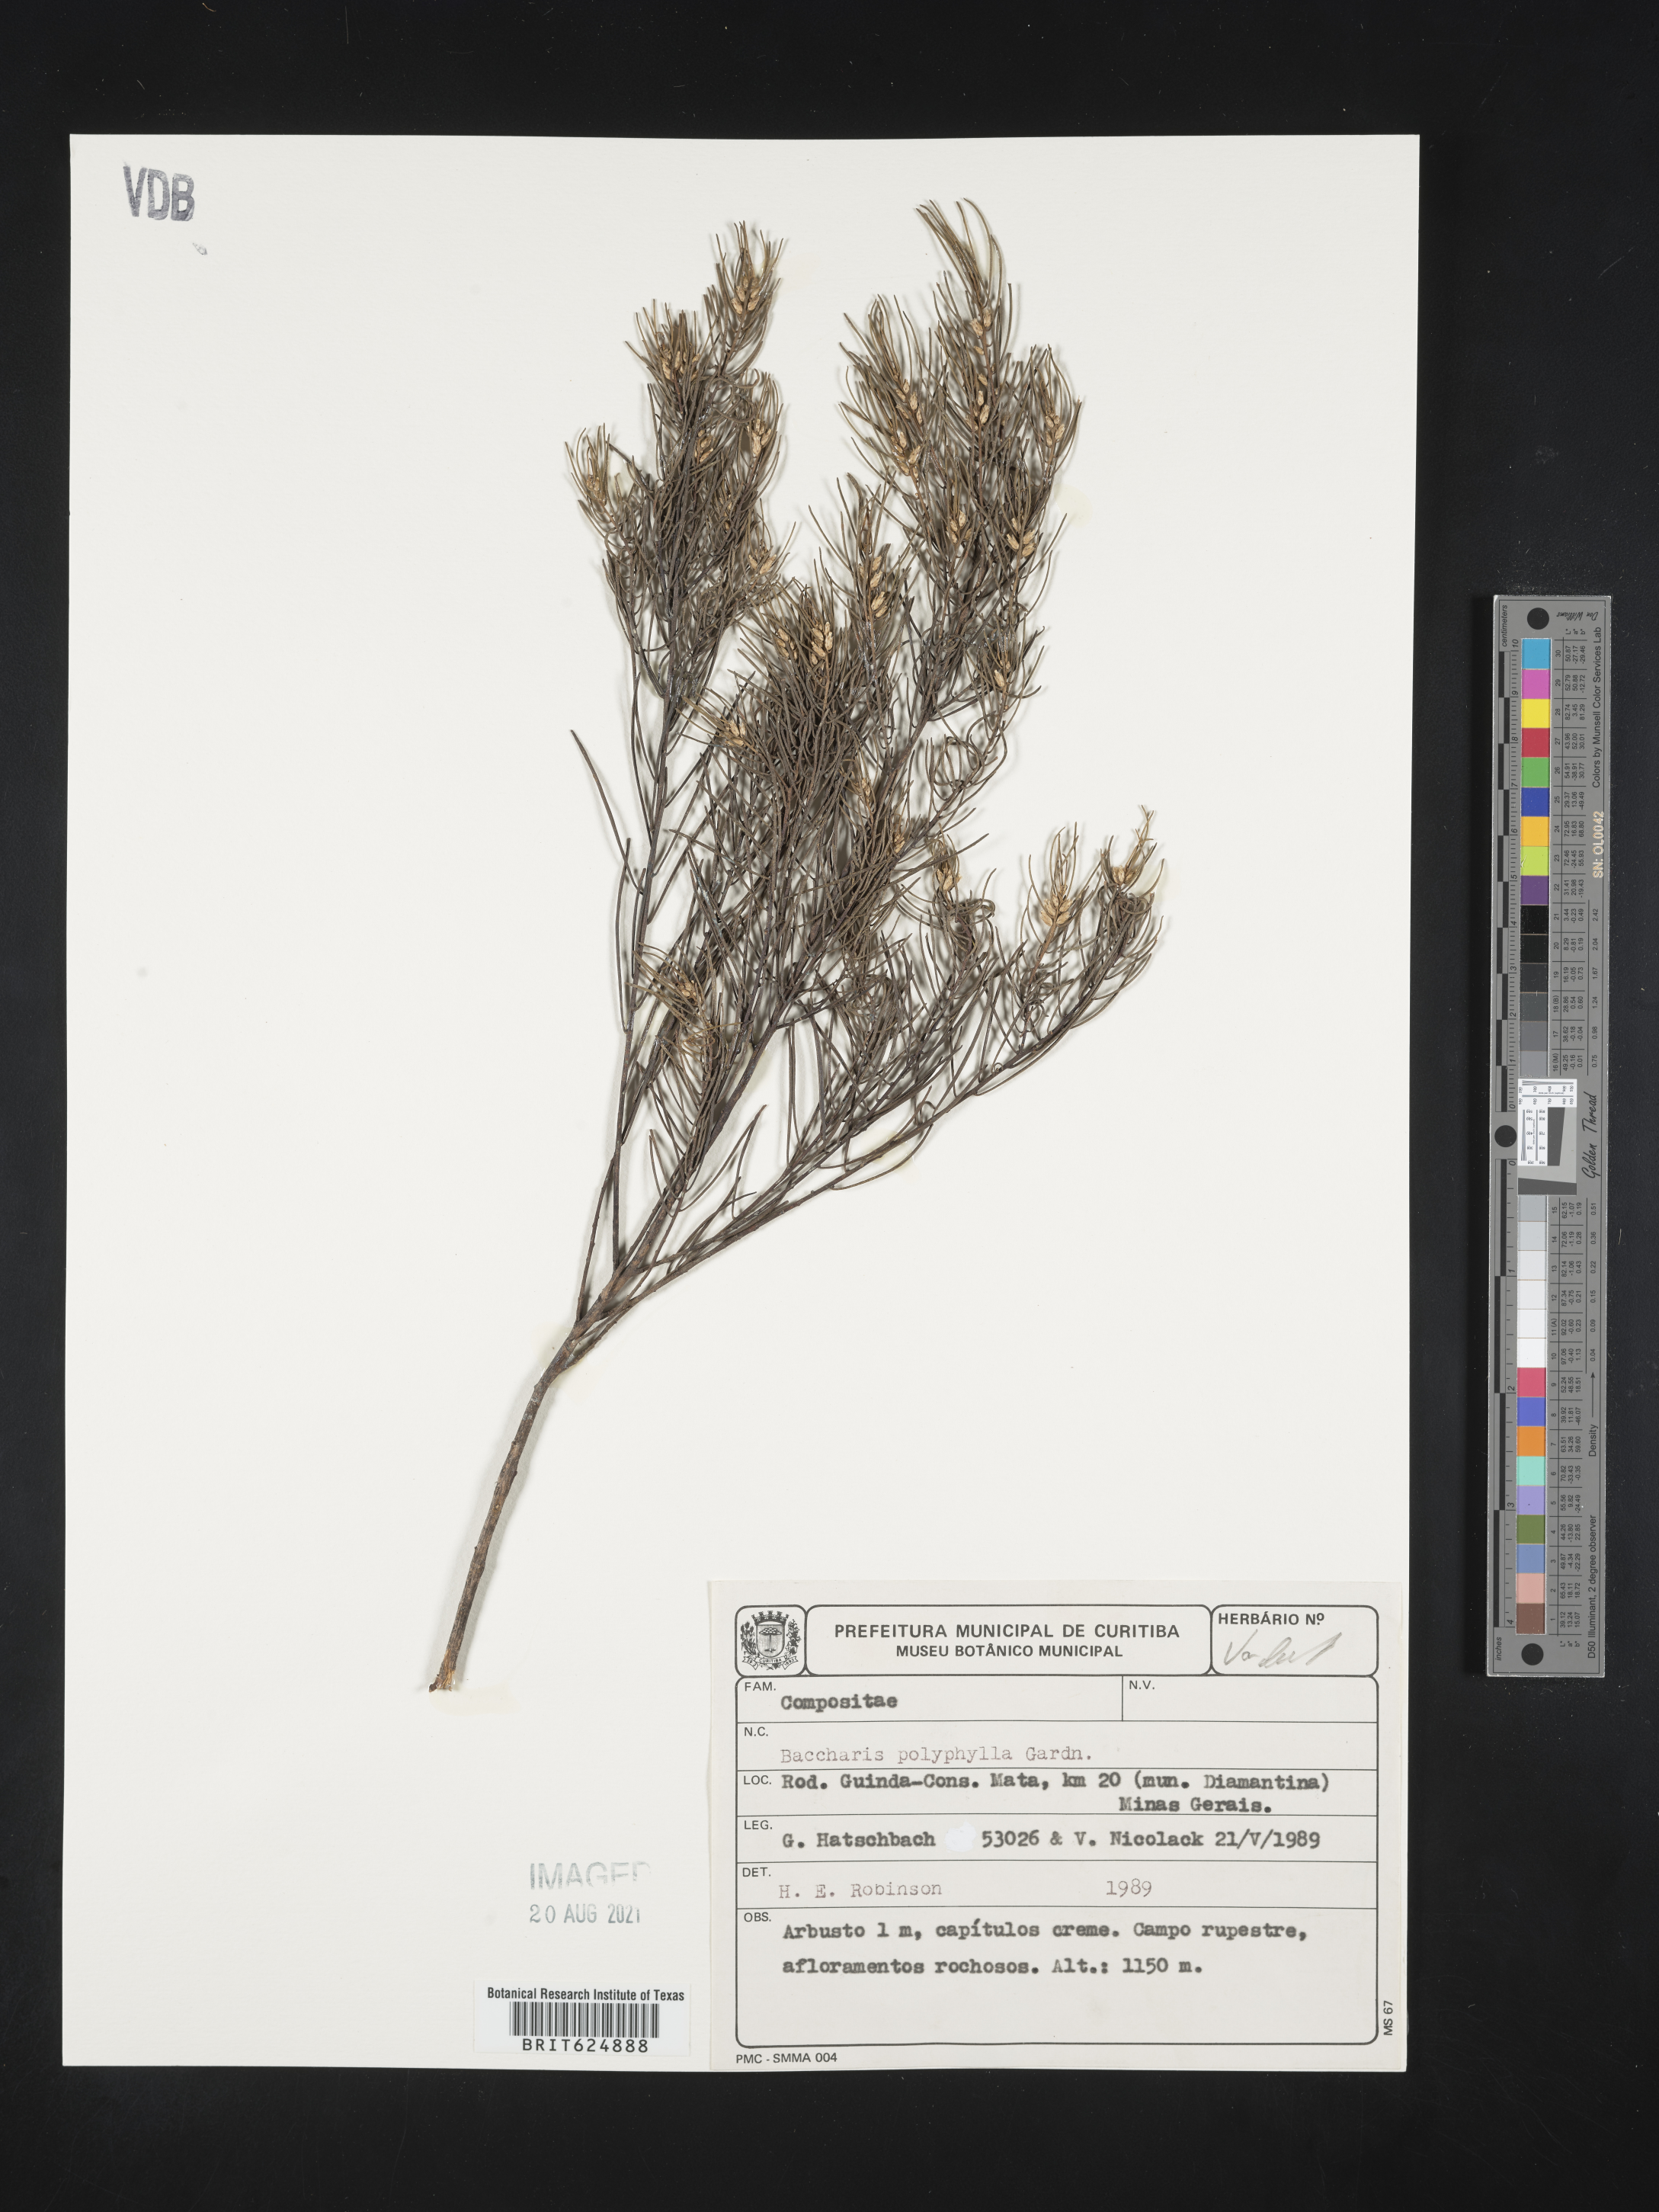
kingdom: Plantae
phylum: Tracheophyta
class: Magnoliopsida
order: Asterales
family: Asteraceae
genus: Baccharis
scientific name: Baccharis polyphylla
